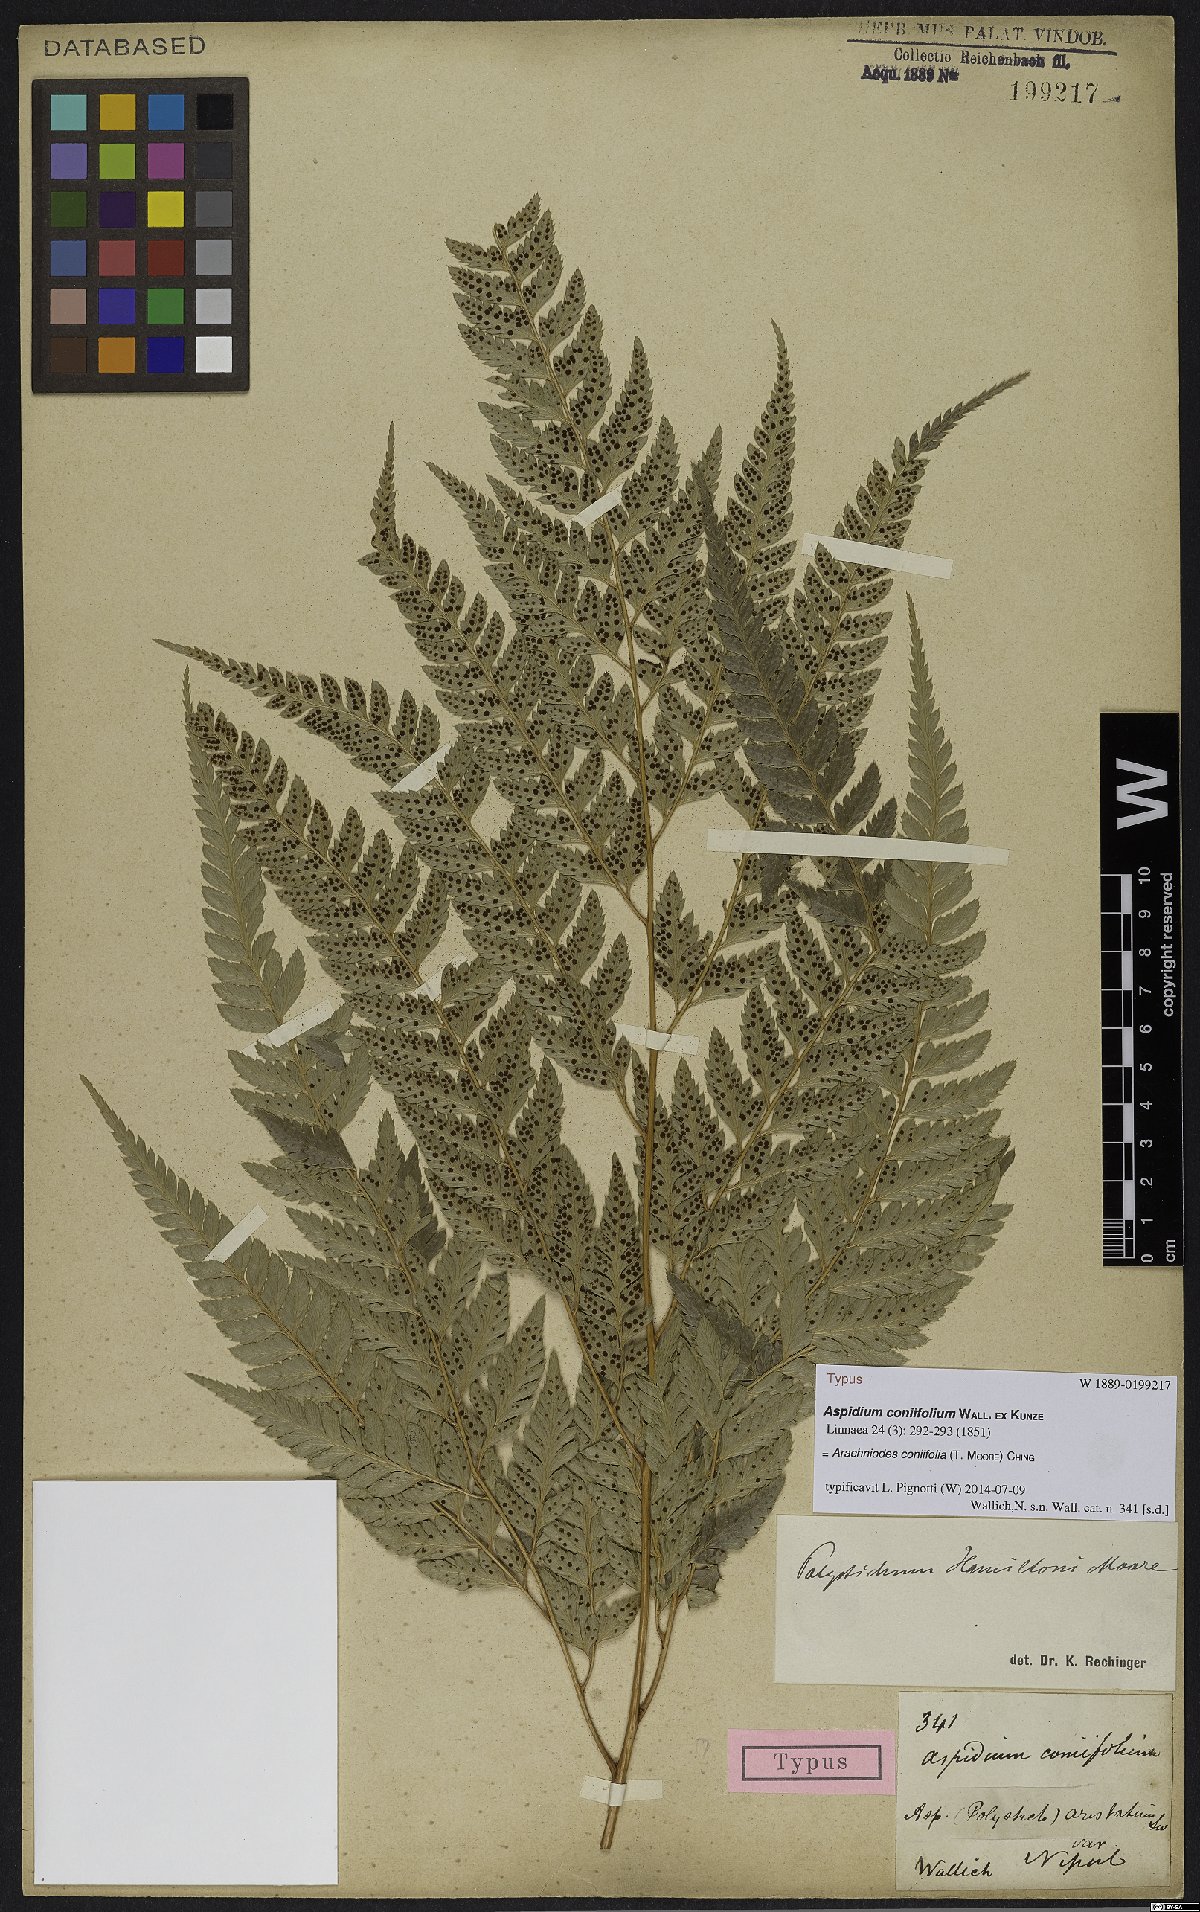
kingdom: Plantae
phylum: Tracheophyta
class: Polypodiopsida
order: Polypodiales
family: Dryopteridaceae
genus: Arachniodes
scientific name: Arachniodes coniifolia
